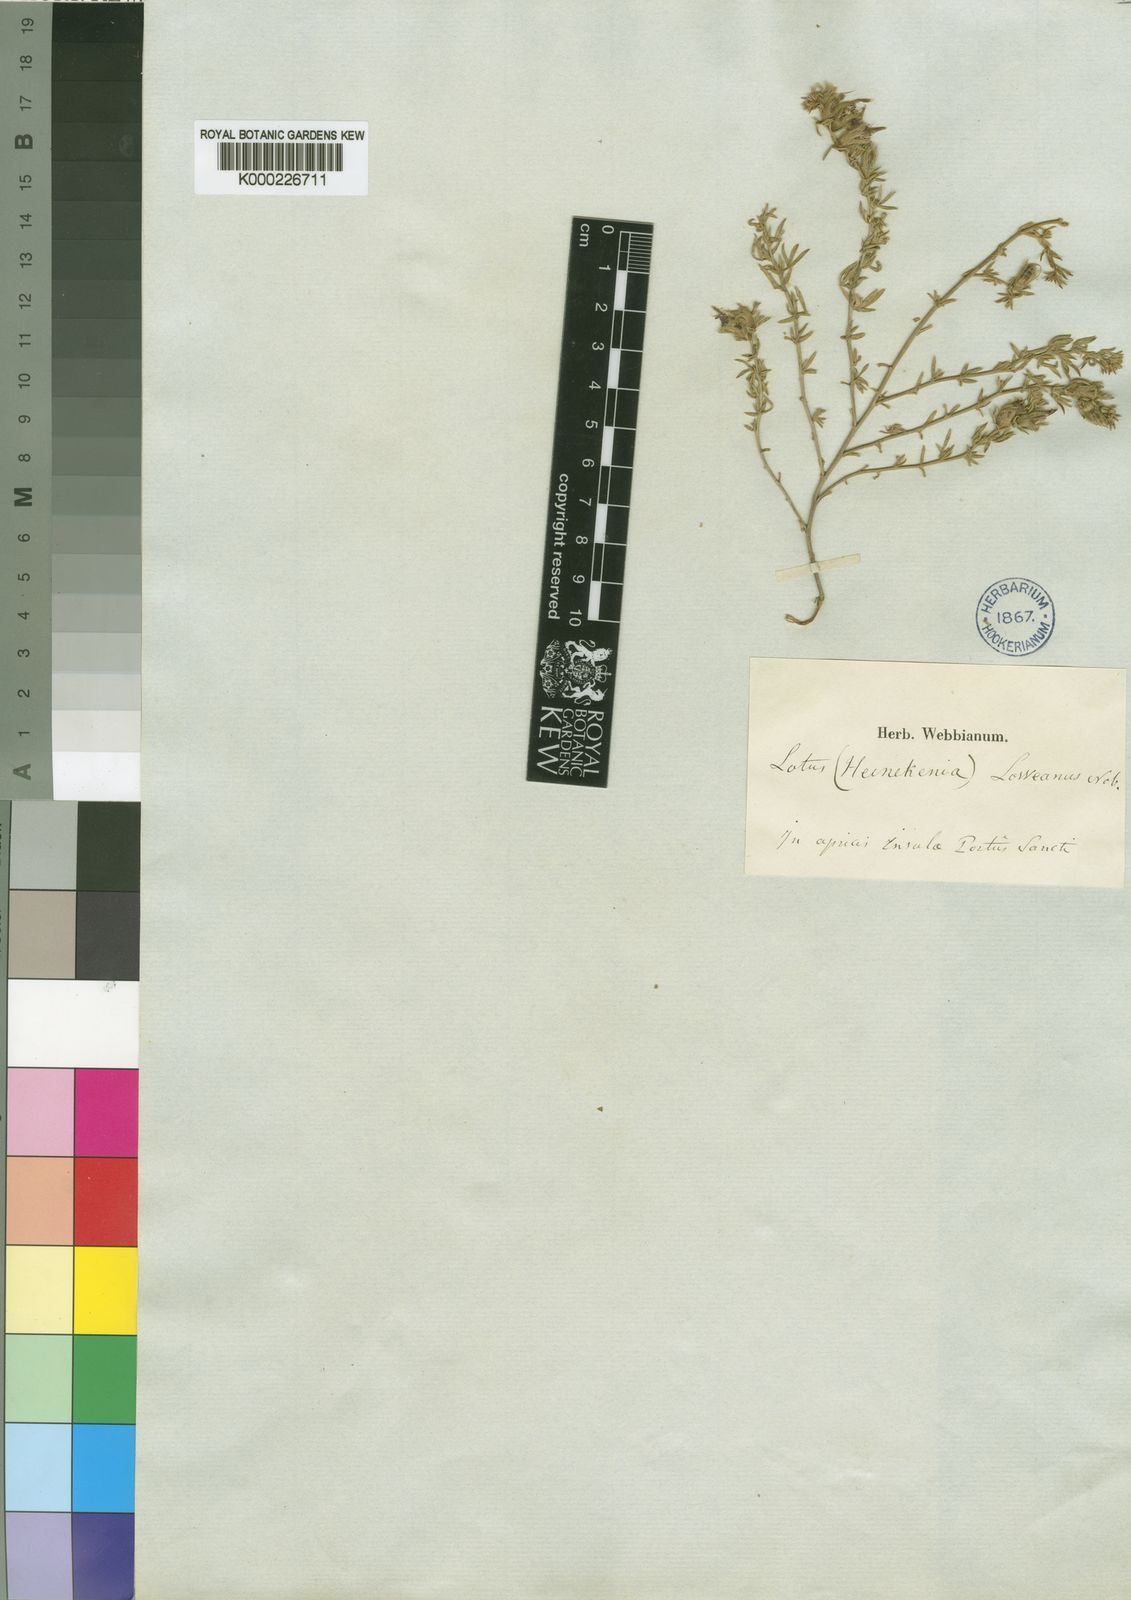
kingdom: Plantae
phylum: Tracheophyta
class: Magnoliopsida
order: Fabales
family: Fabaceae
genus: Lotus
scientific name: Lotus loweanus
